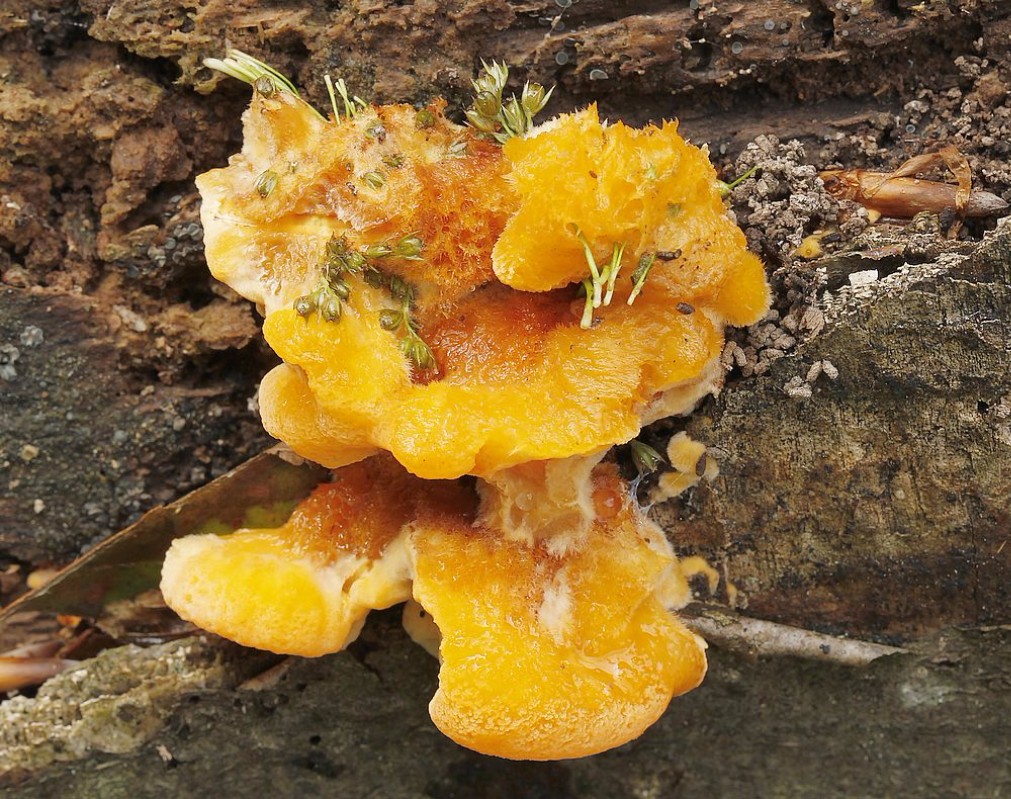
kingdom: Fungi
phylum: Basidiomycota
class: Agaricomycetes
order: Polyporales
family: Pycnoporellaceae
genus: Pycnoporellus
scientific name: Pycnoporellus fulgens
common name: flammeporesvamp
